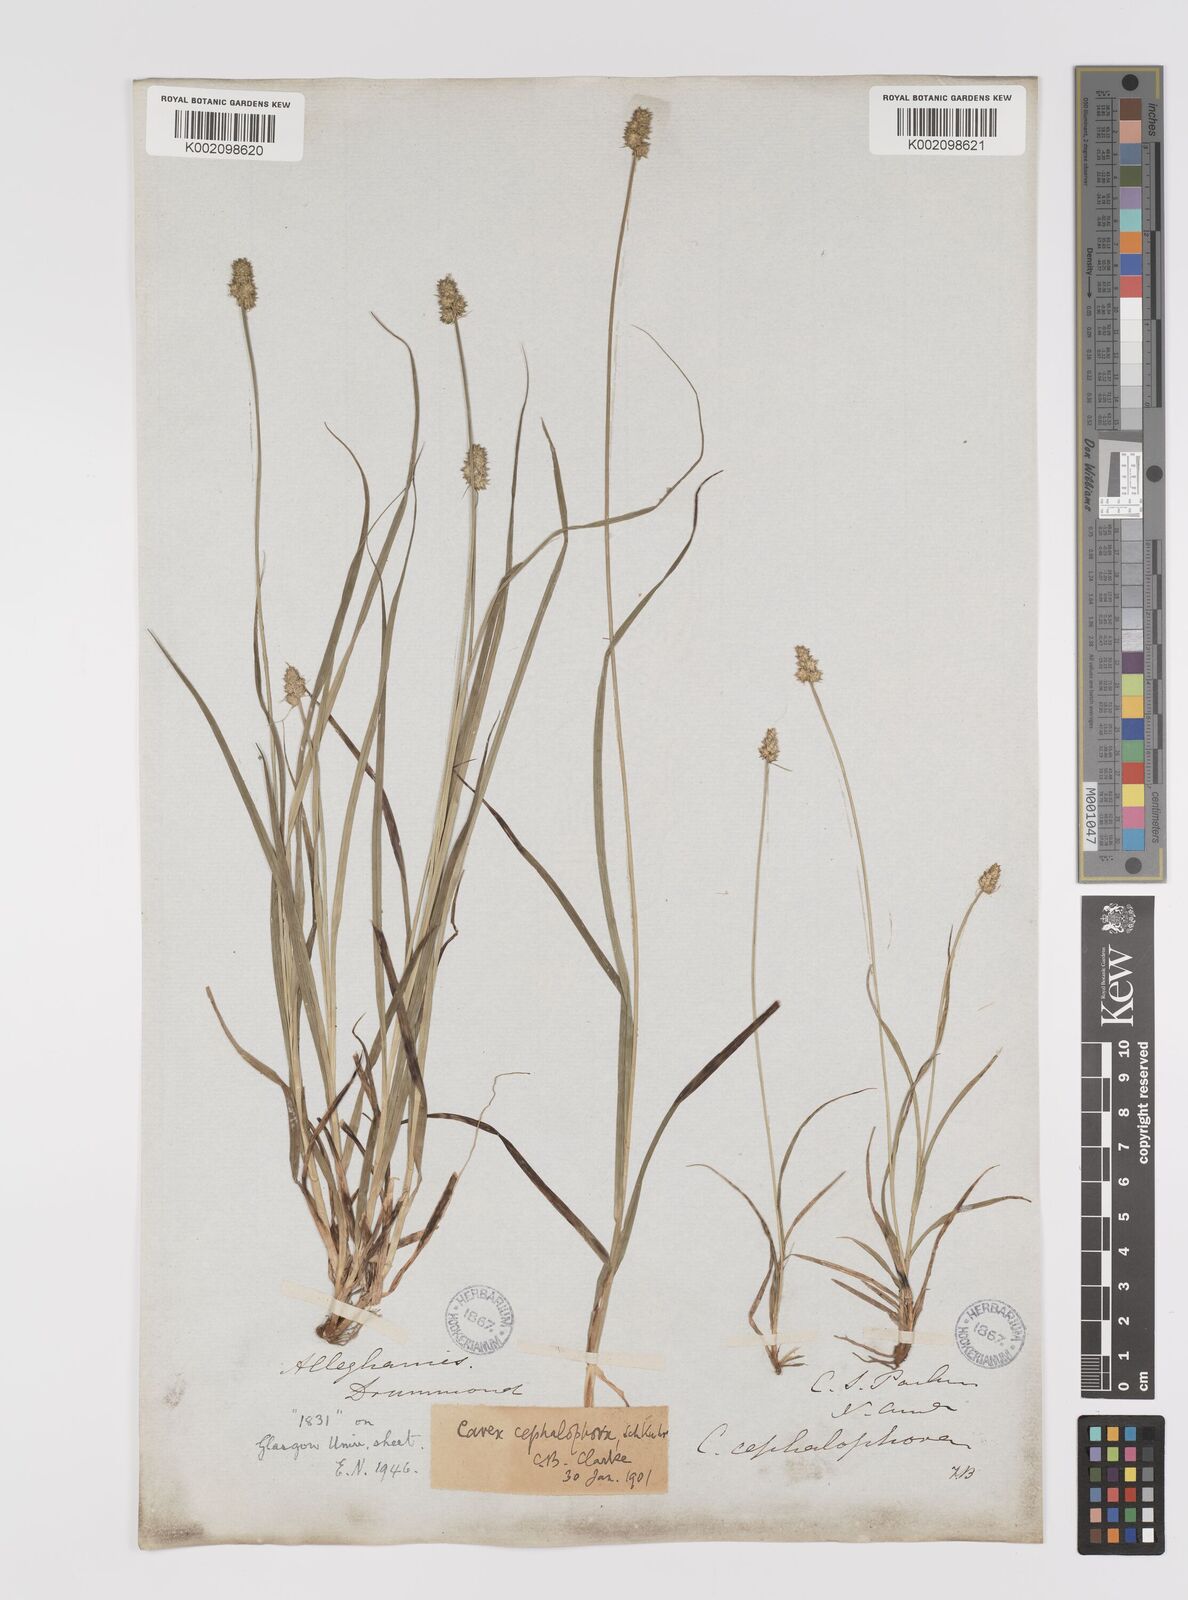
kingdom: Plantae
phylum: Tracheophyta
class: Liliopsida
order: Poales
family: Cyperaceae
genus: Carex
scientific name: Carex cephalophora
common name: Oval-headed sedge
